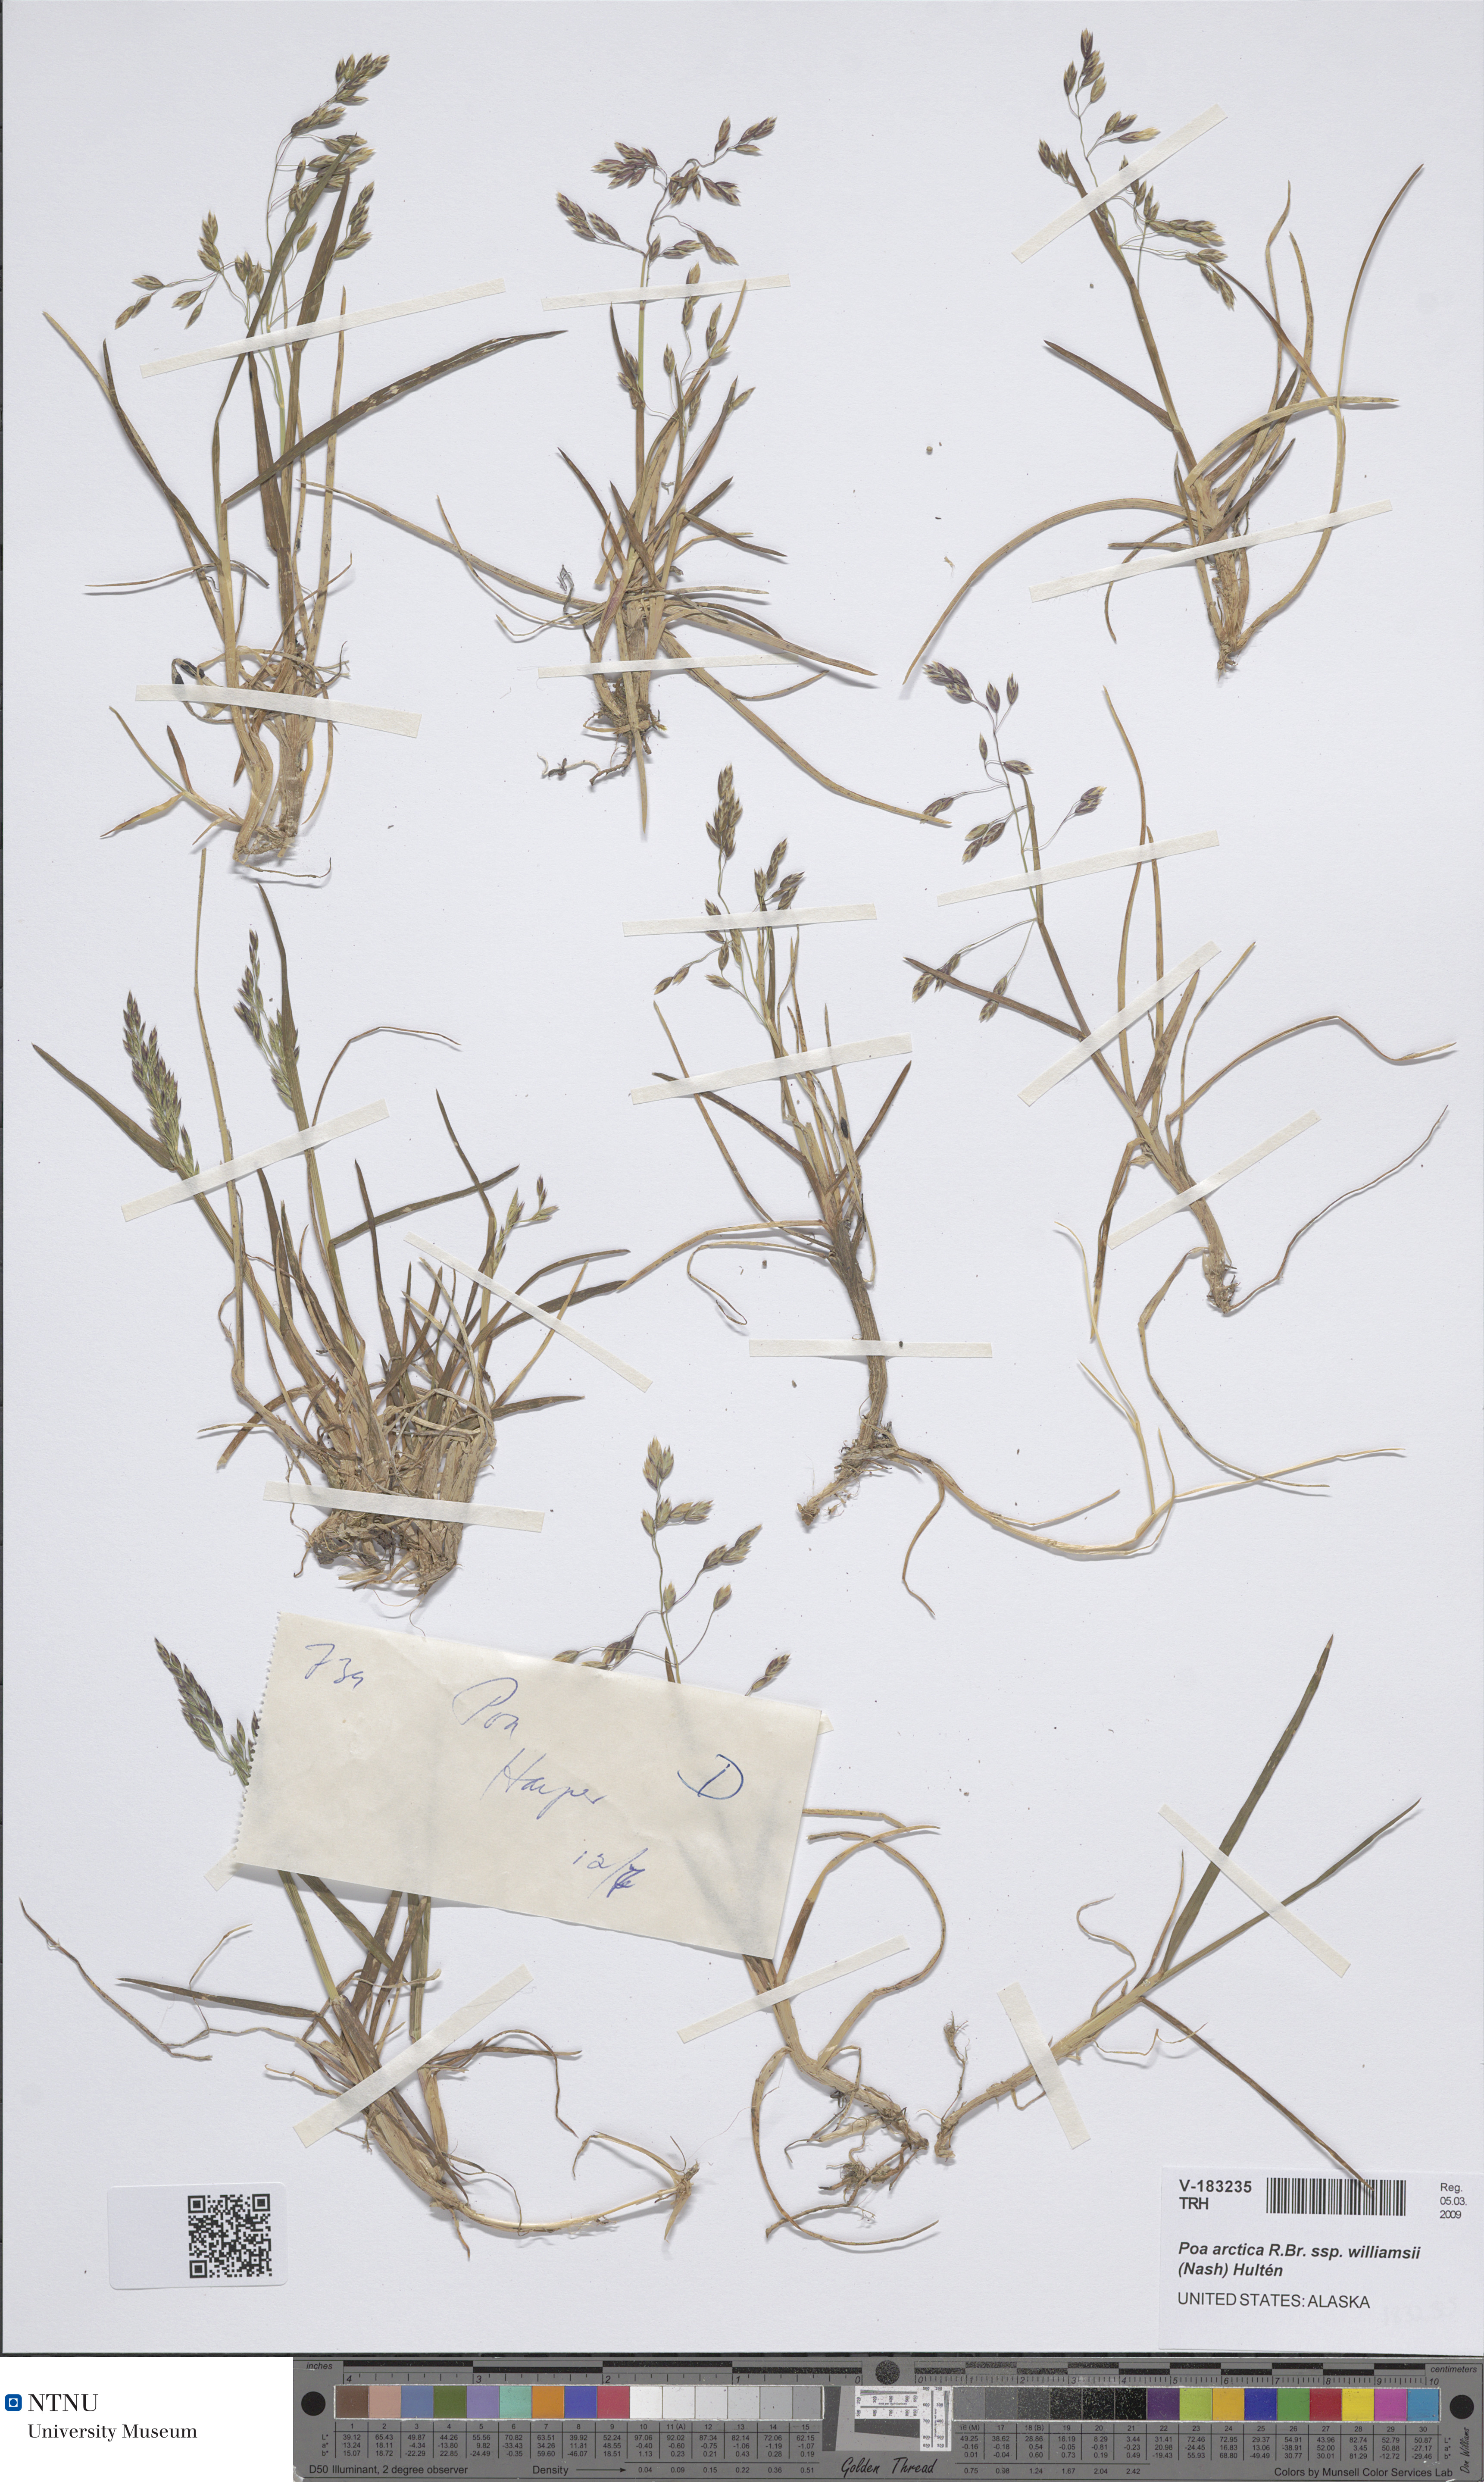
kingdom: Plantae
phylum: Tracheophyta
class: Liliopsida
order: Poales
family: Poaceae
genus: Poa
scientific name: Poa arctica
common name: Arctic bluegrass
